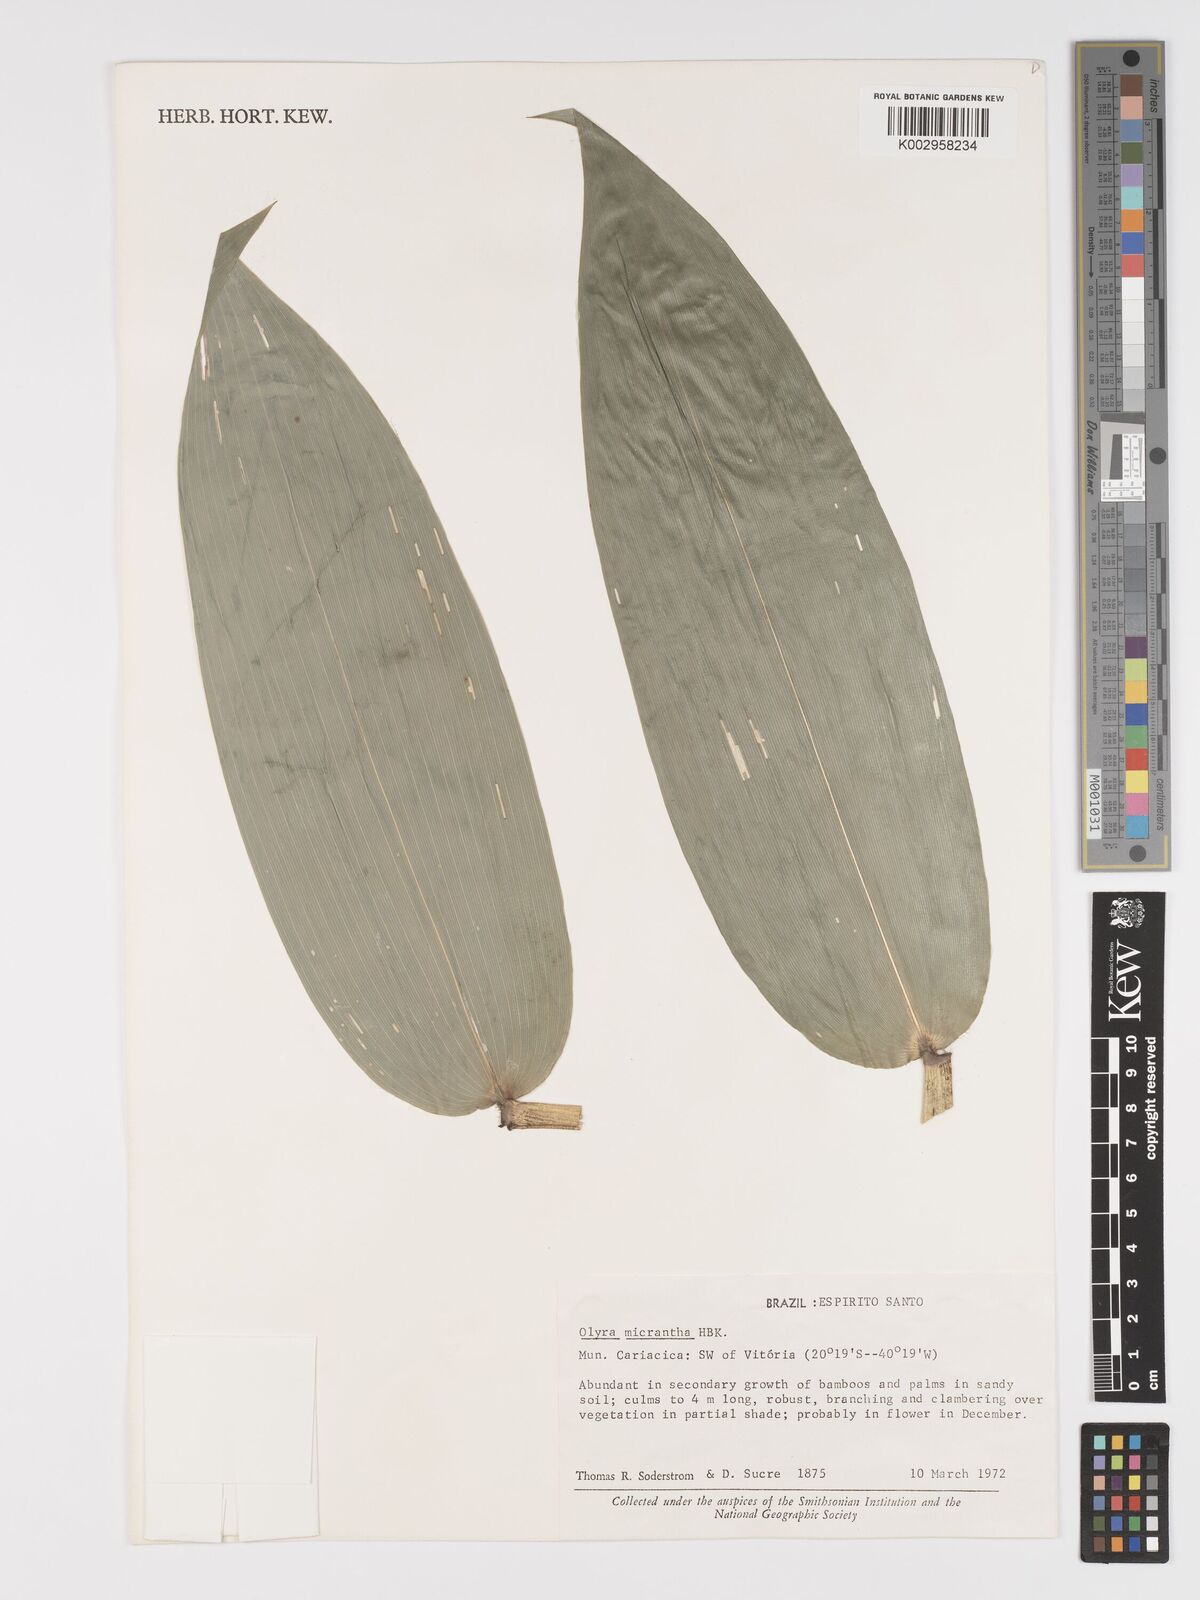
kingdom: Plantae
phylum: Tracheophyta
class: Liliopsida
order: Poales
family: Poaceae
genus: Taquara
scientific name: Taquara micrantha
